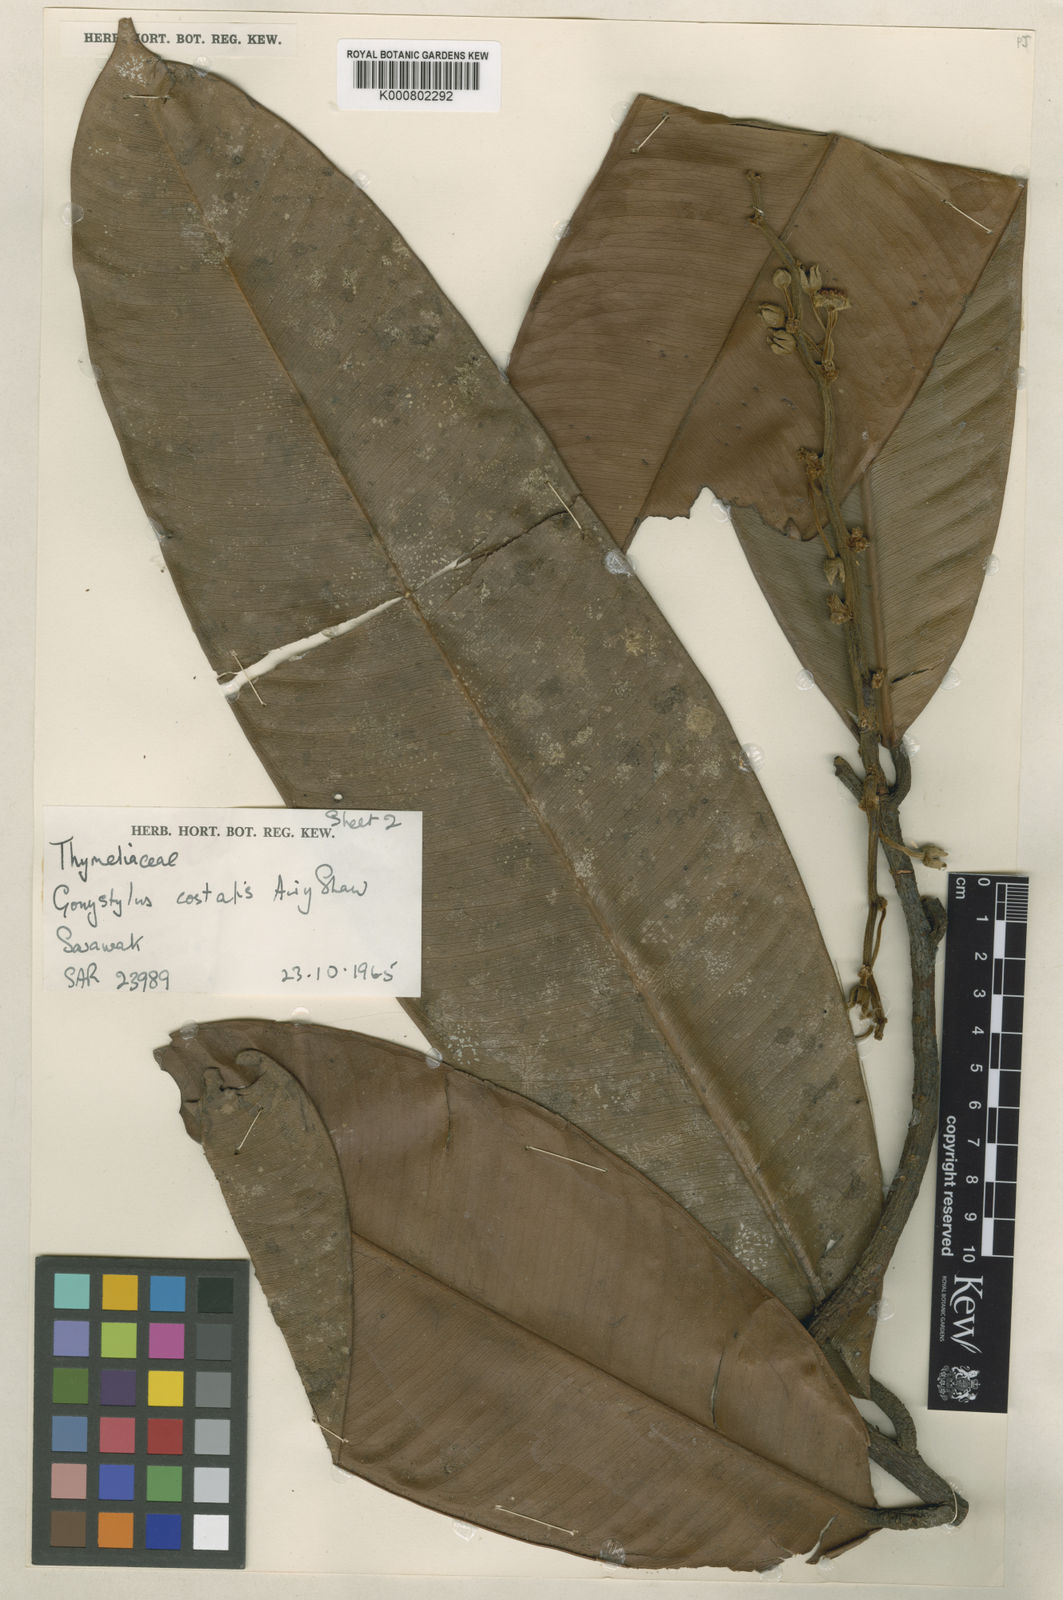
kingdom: Plantae
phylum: Tracheophyta
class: Magnoliopsida
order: Malvales
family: Thymelaeaceae
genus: Gonystylus
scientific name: Gonystylus costalis
